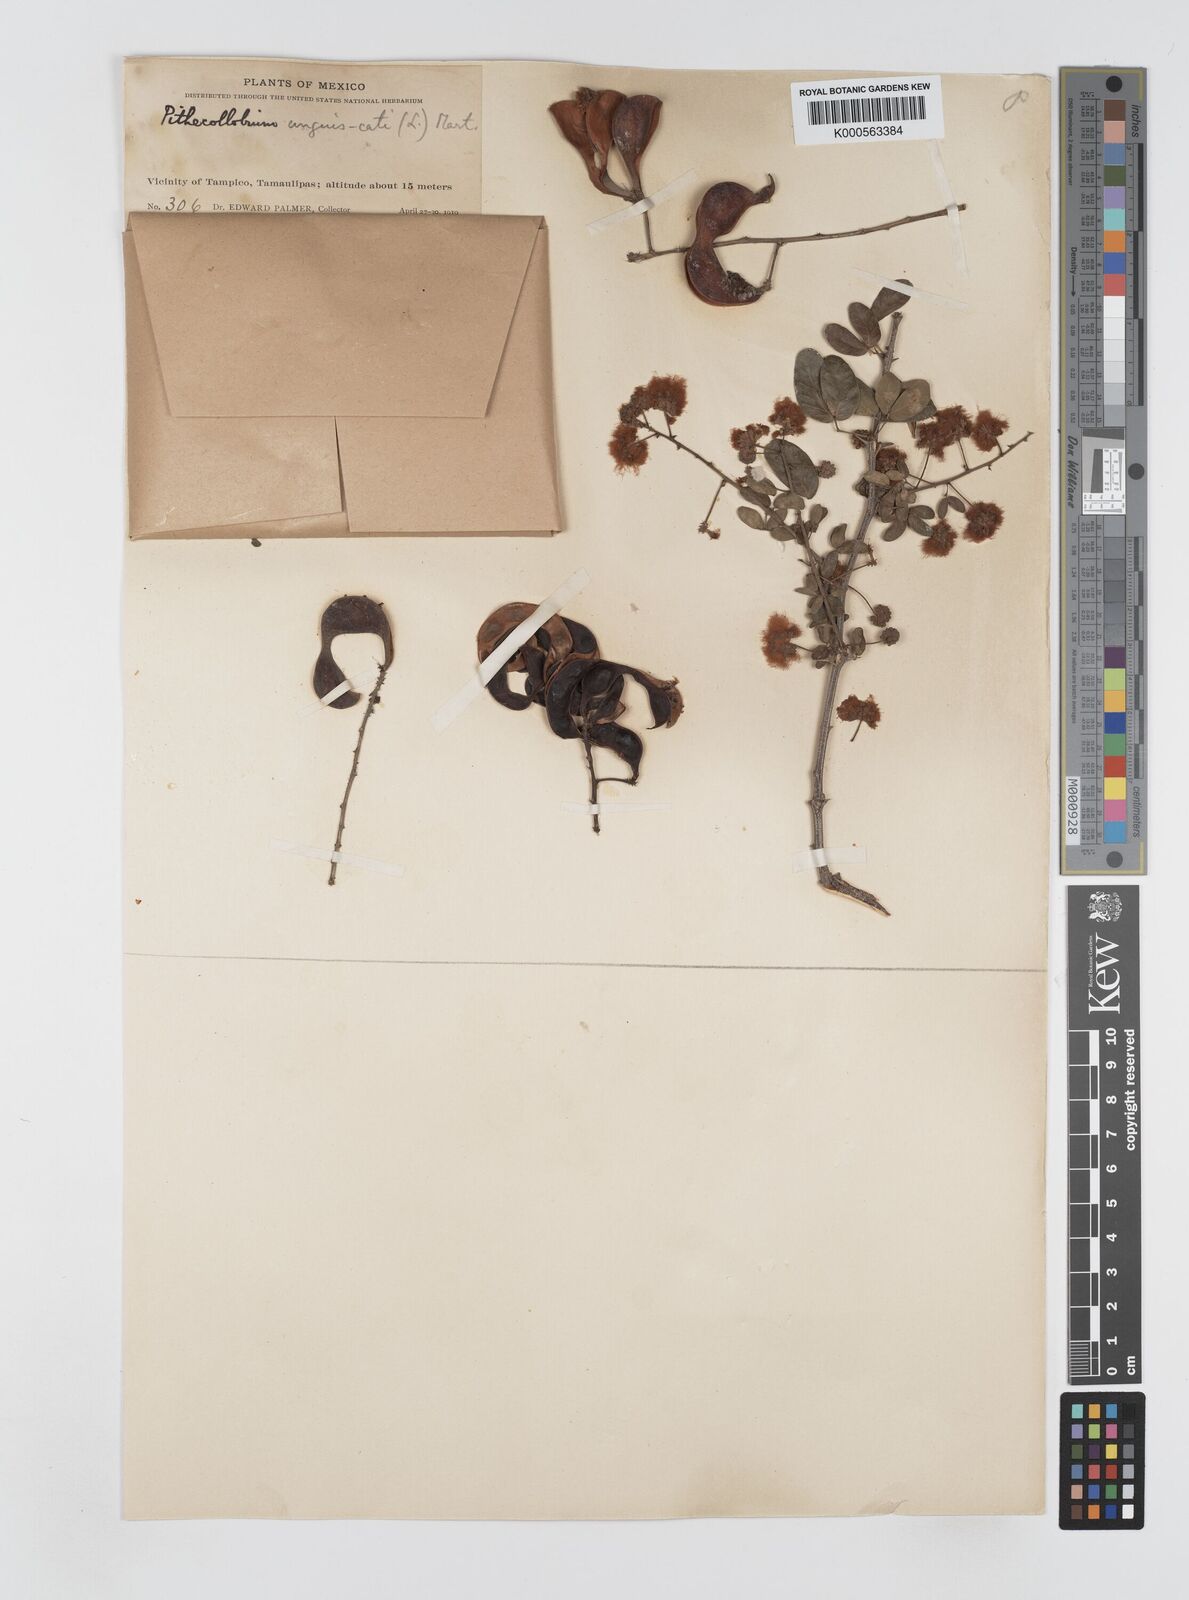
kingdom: Plantae
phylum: Tracheophyta
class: Magnoliopsida
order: Fabales
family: Fabaceae
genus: Pithecellobium
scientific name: Pithecellobium unguis-cati
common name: Cat's-claw
